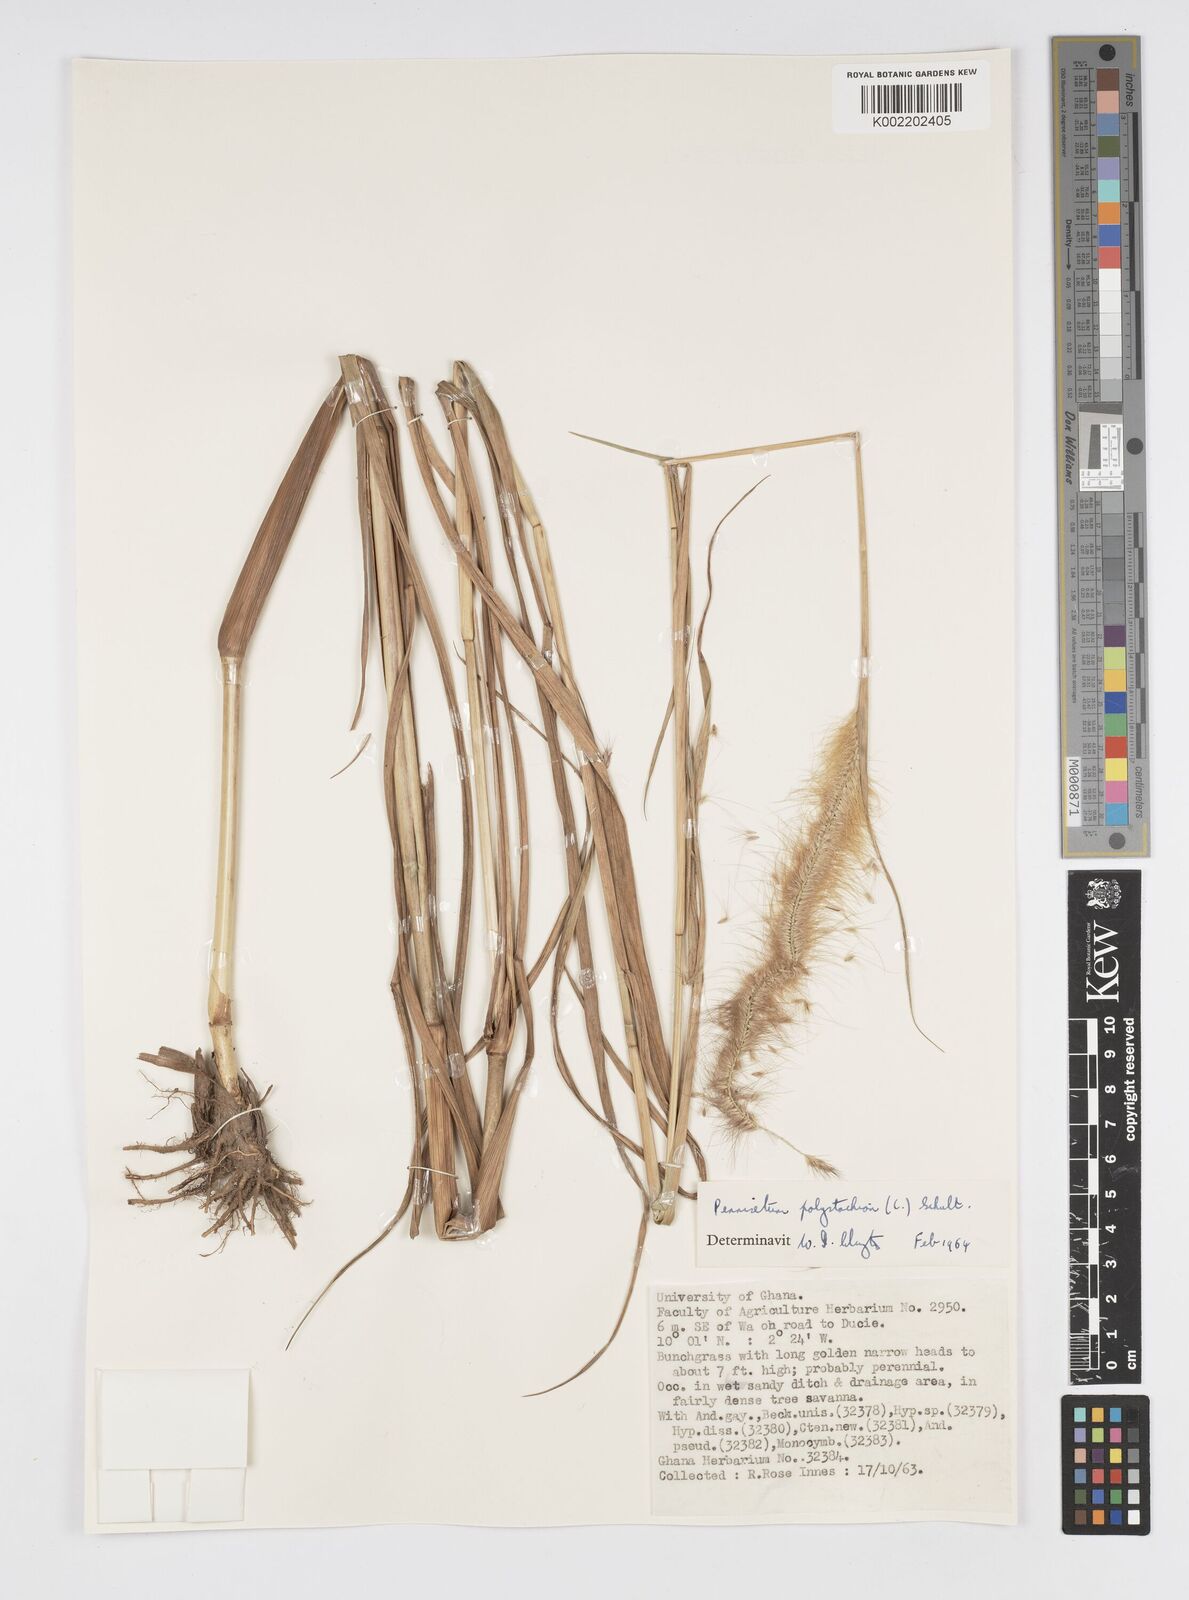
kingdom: Plantae
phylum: Tracheophyta
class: Liliopsida
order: Poales
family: Poaceae
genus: Setaria
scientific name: Setaria parviflora
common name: Knotroot bristle-grass
